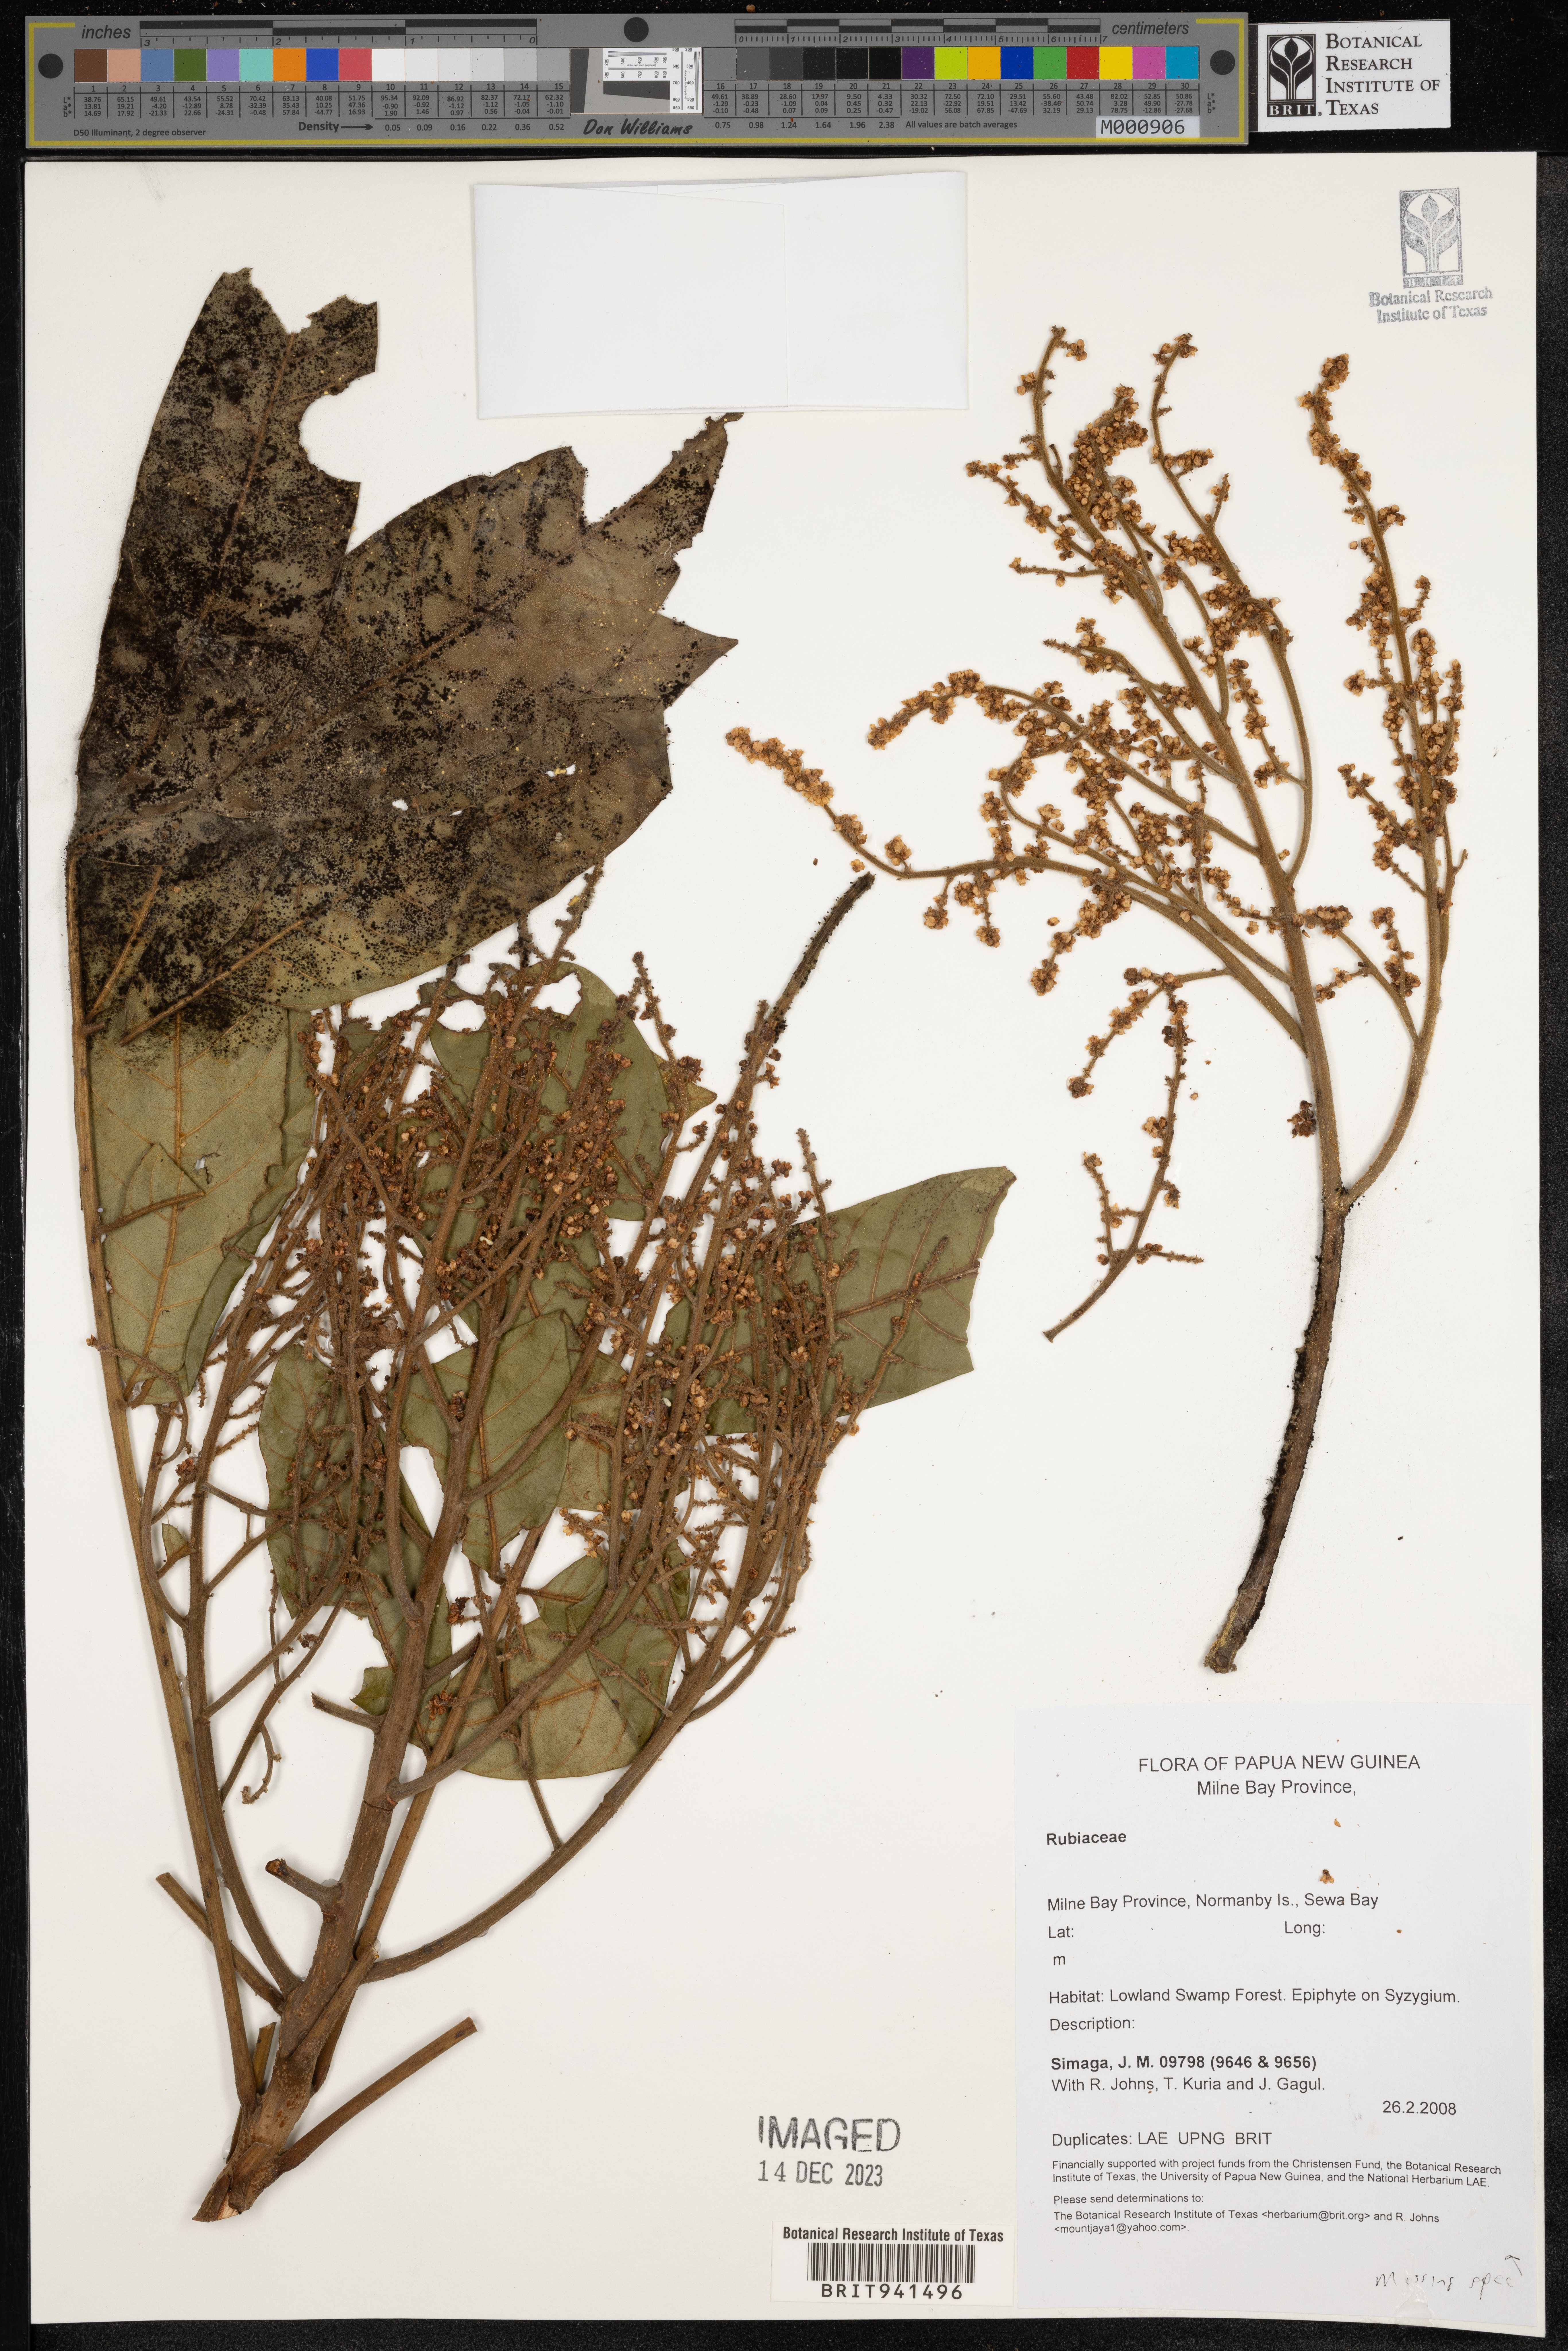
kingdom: Plantae
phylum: Tracheophyta
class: Magnoliopsida
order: Gentianales
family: Rubiaceae
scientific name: Rubiaceae
